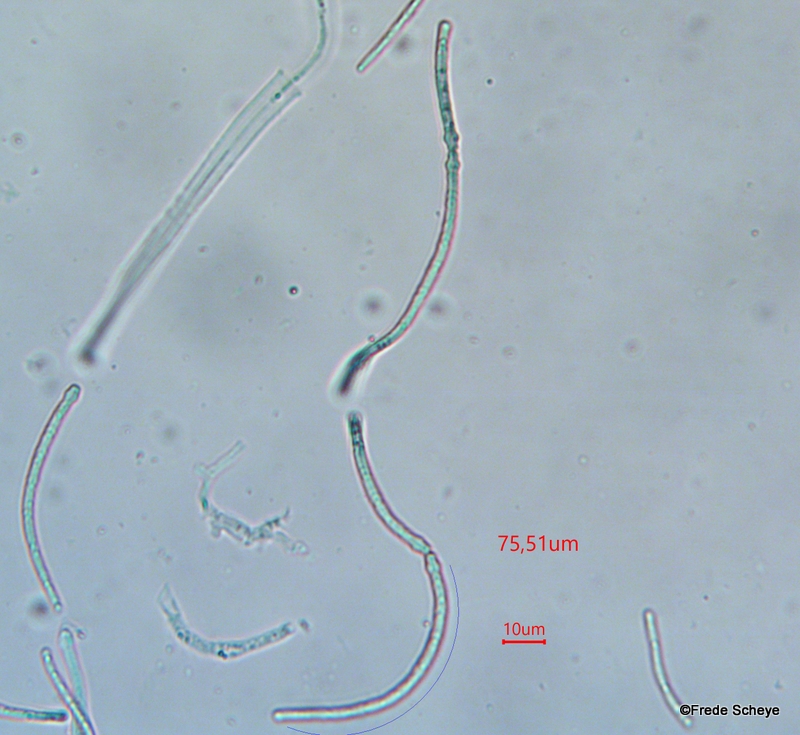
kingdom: Fungi
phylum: Ascomycota
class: Dothideomycetes
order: Pleosporales
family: Phaeosphaeriaceae
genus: Ophiobolus
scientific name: Ophiobolus acuminatus
